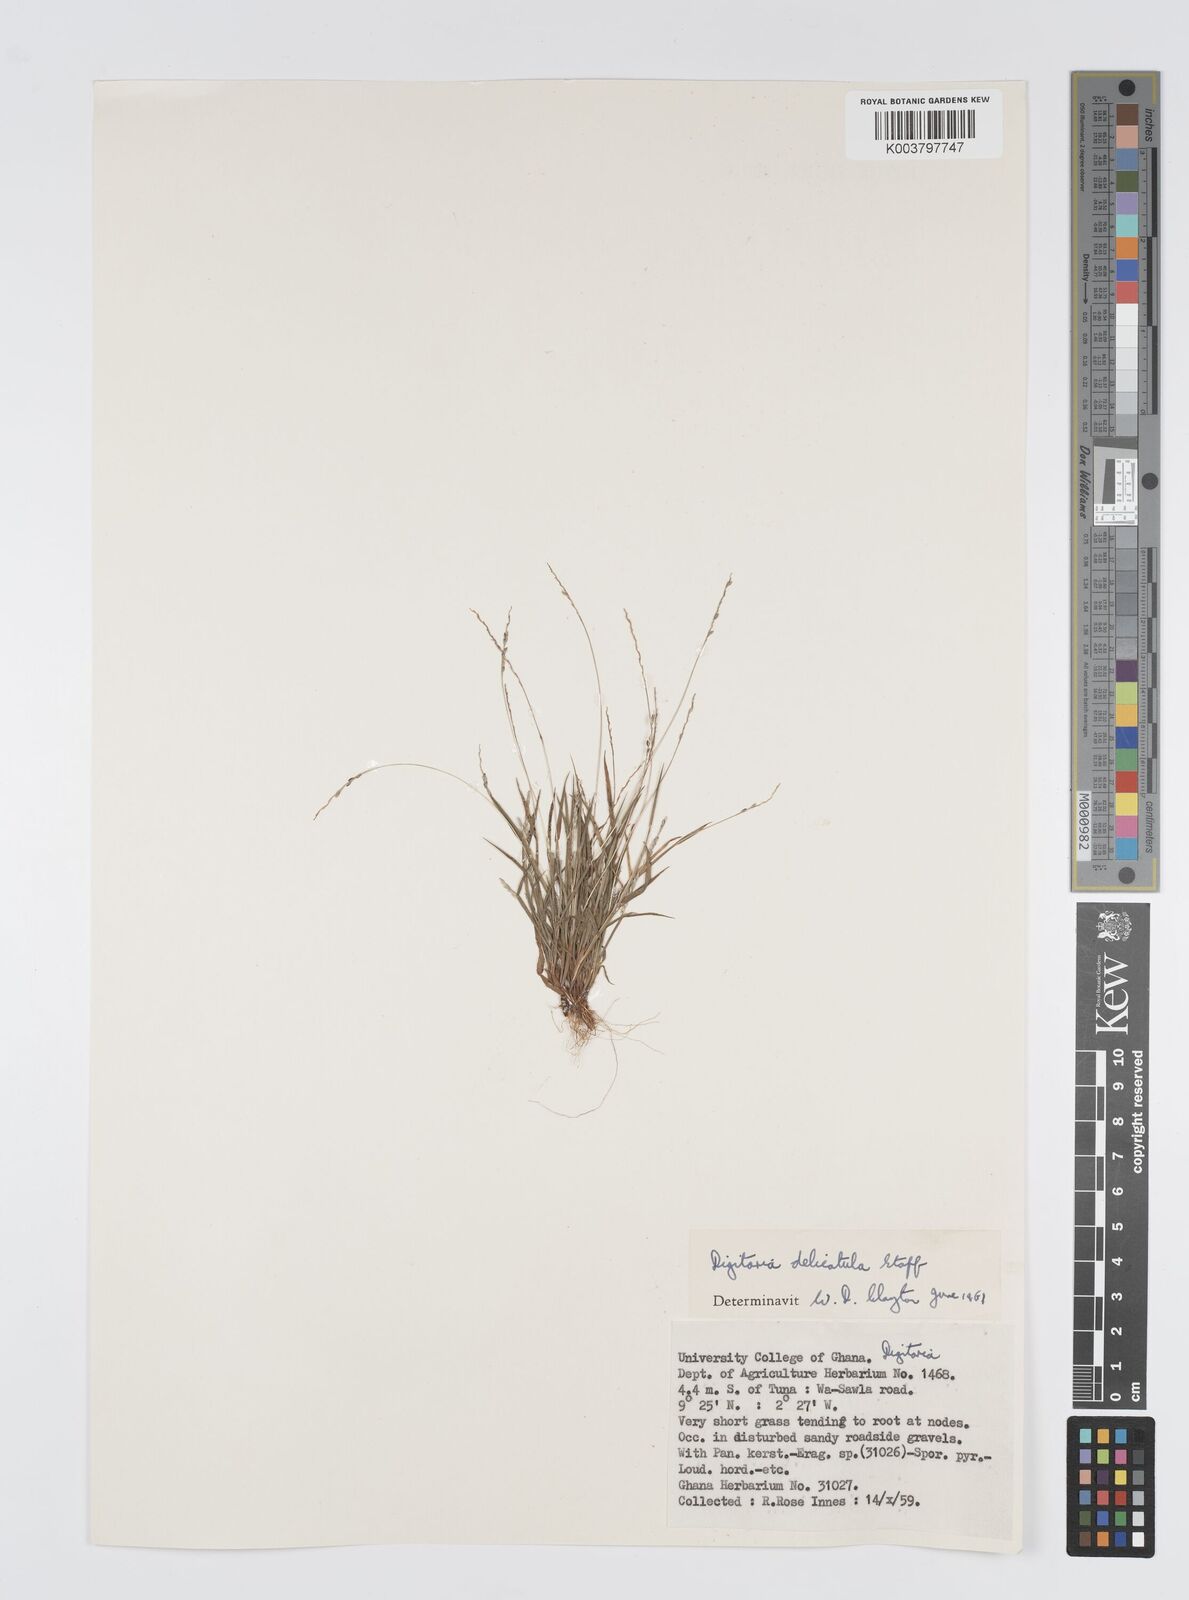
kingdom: Plantae
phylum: Tracheophyta
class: Liliopsida
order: Poales
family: Poaceae
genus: Digitaria
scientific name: Digitaria delicatula
